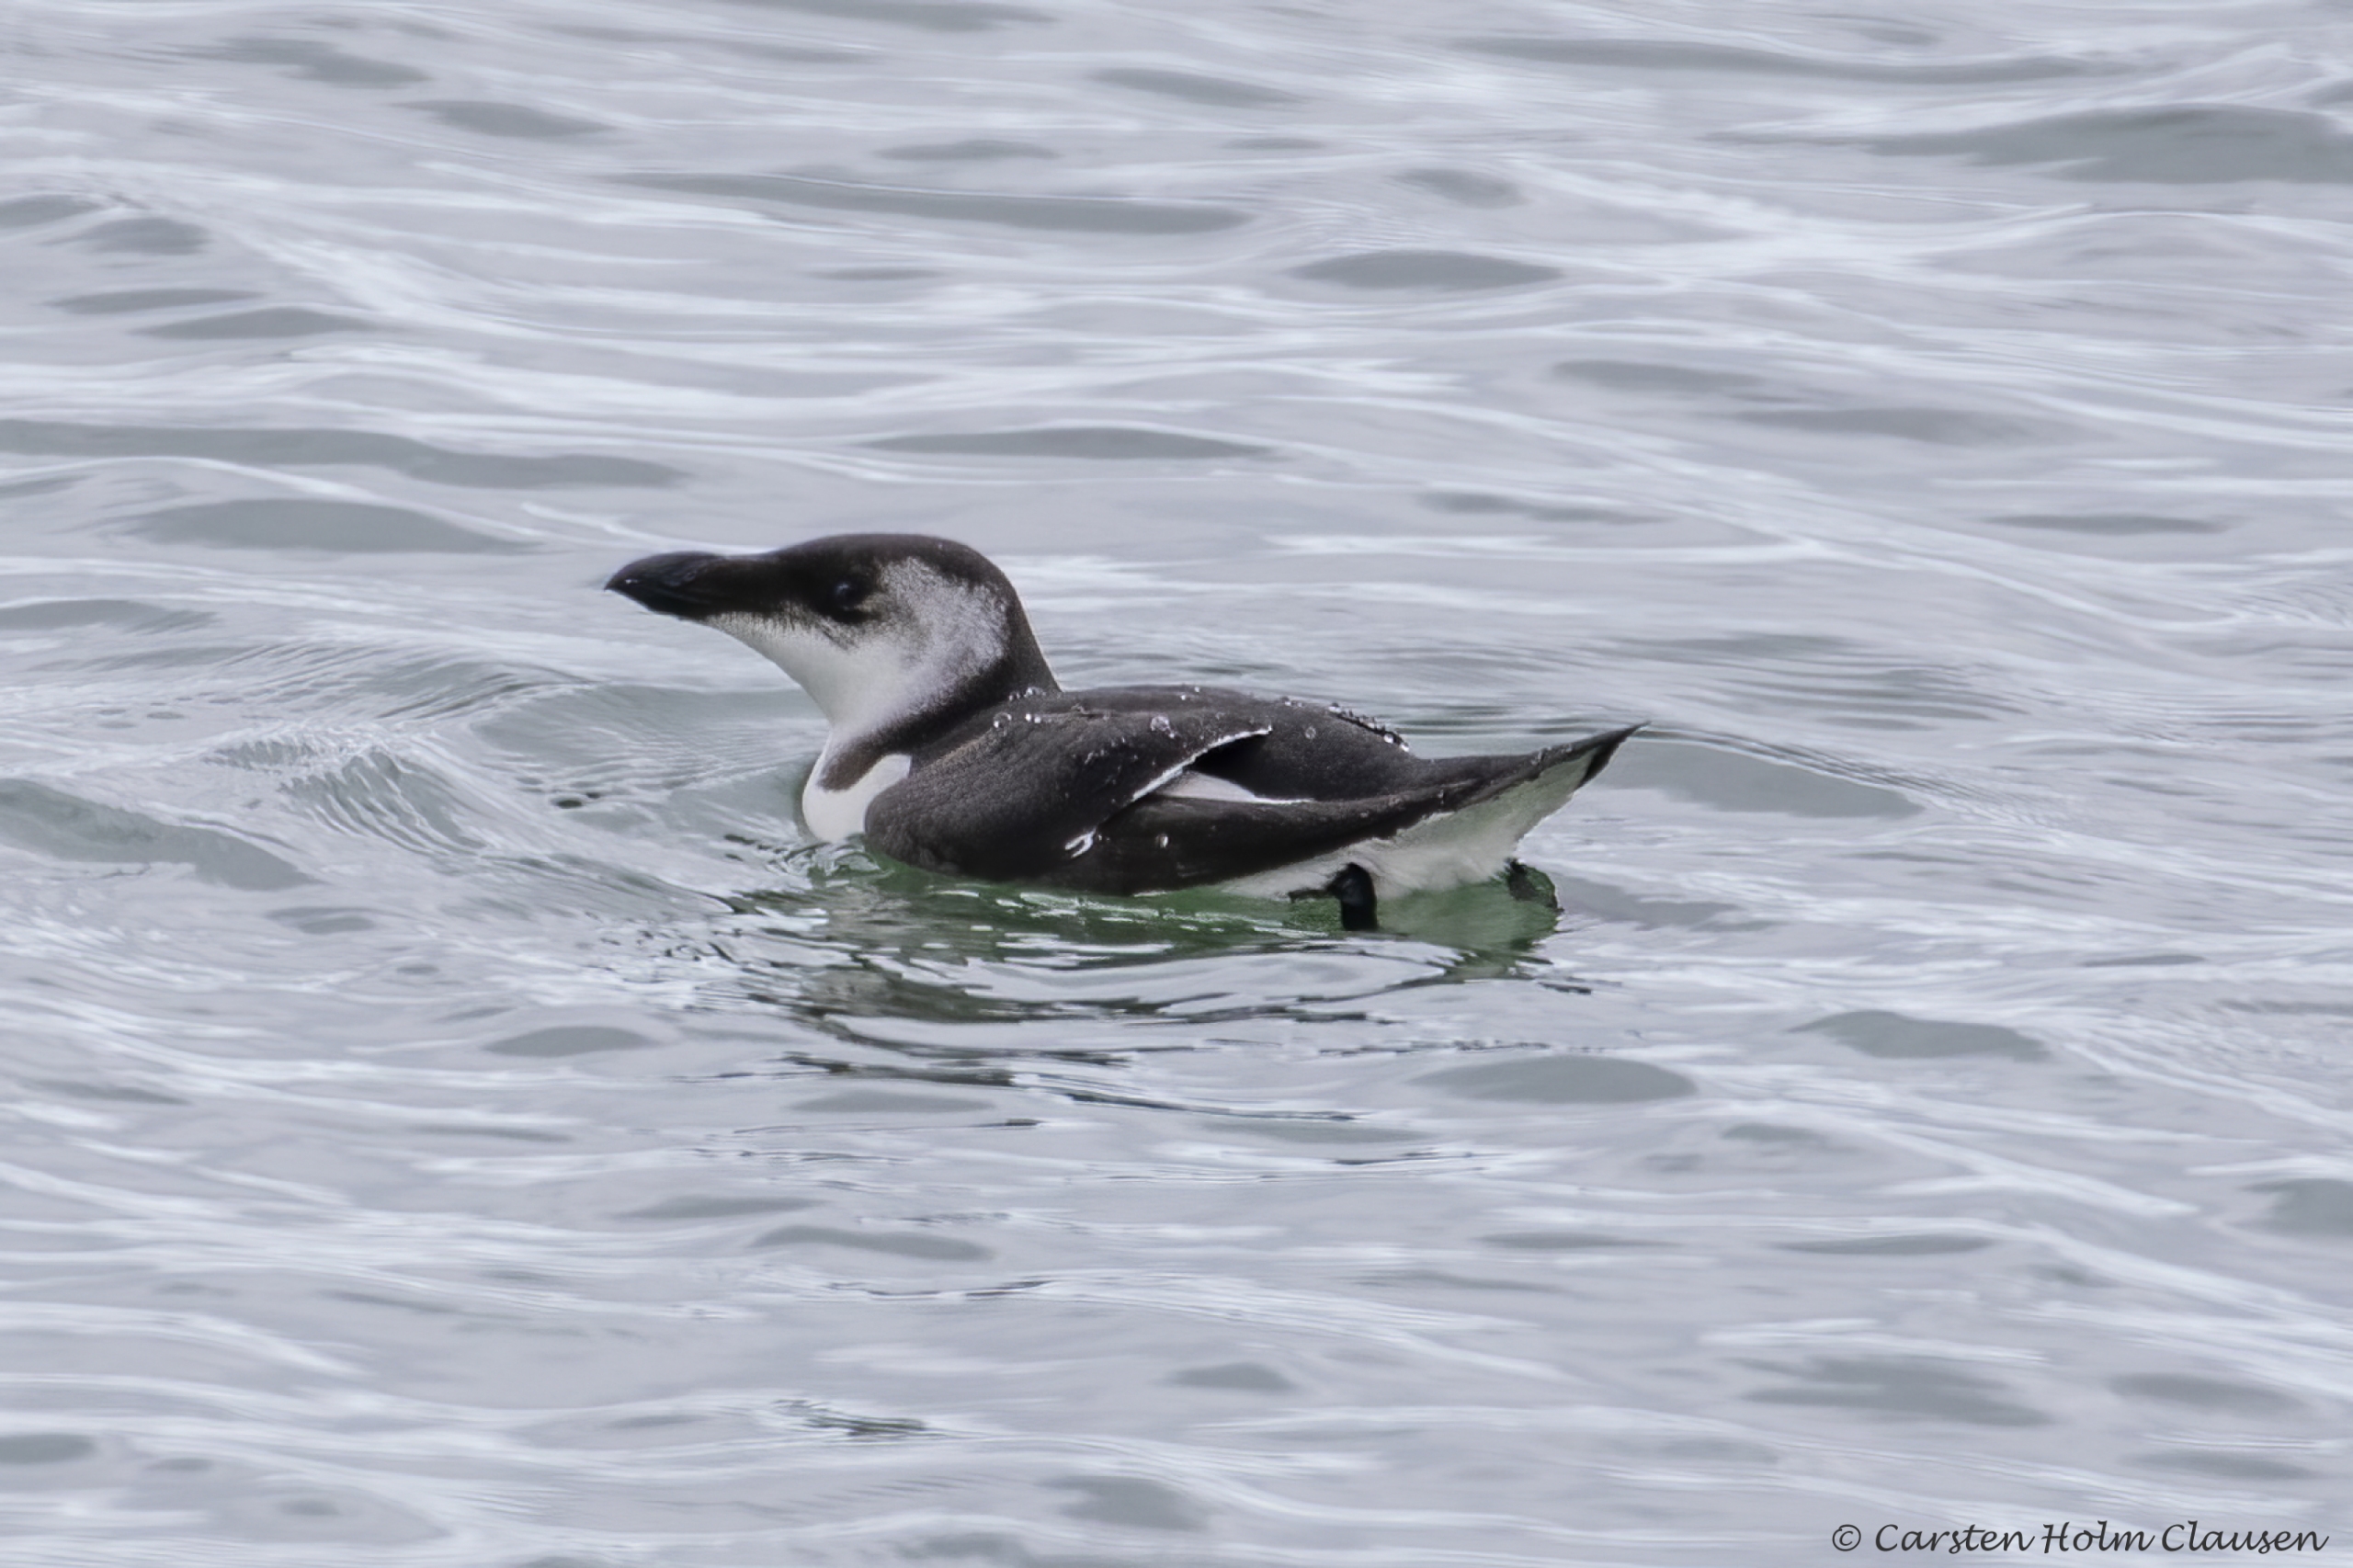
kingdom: Animalia
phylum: Chordata
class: Aves
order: Charadriiformes
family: Alcidae
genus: Alca
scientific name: Alca torda
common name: Alk
